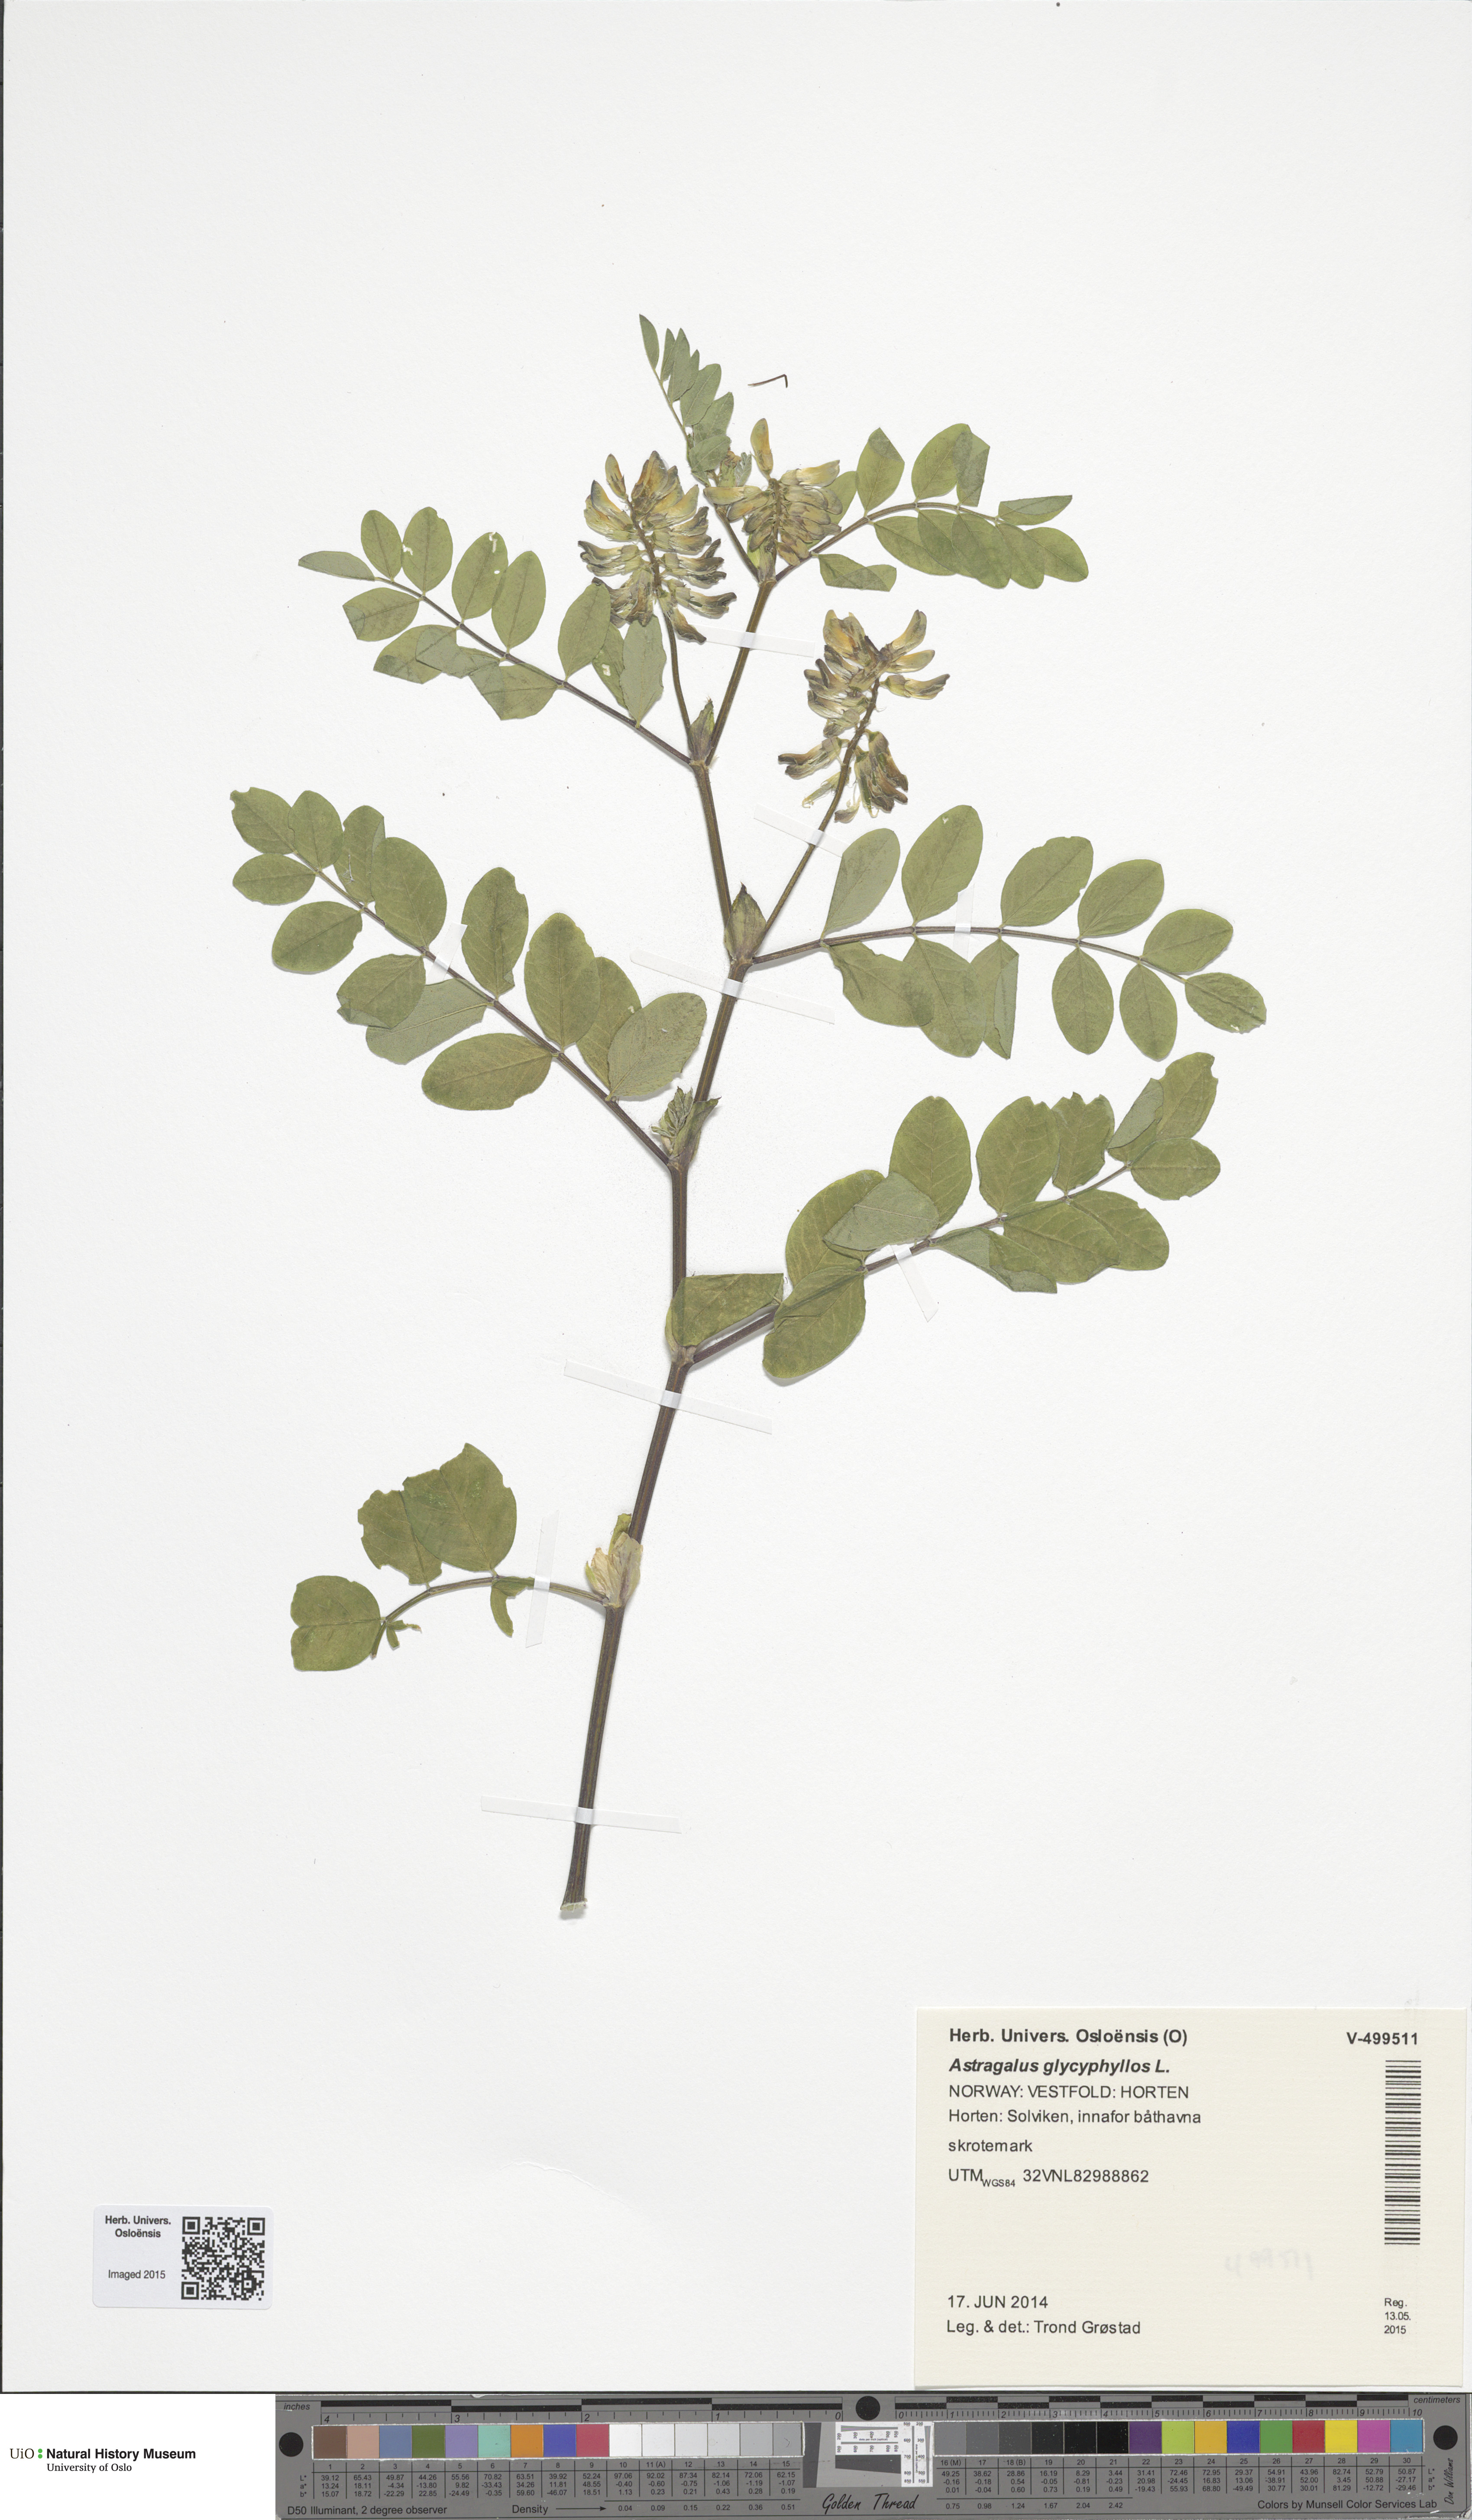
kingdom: Plantae
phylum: Tracheophyta
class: Magnoliopsida
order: Fabales
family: Fabaceae
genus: Astragalus
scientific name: Astragalus glycyphyllos
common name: Wild liquorice
